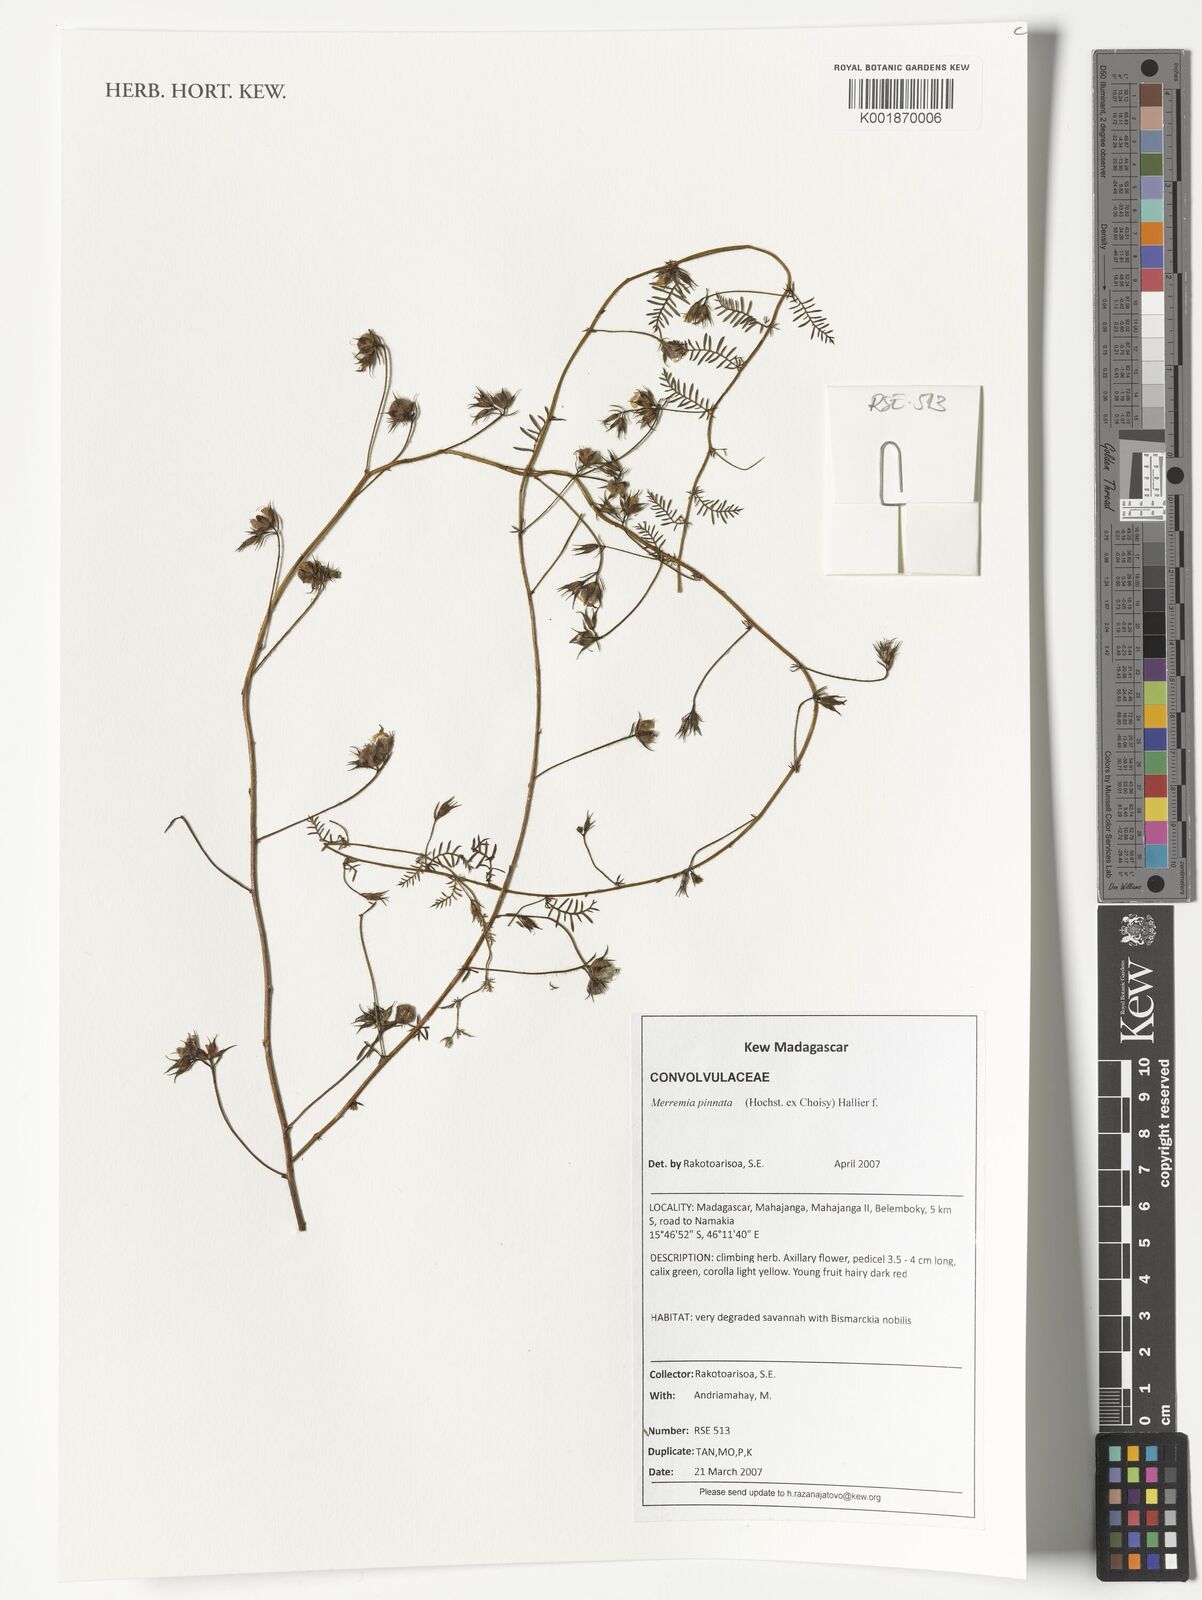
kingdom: Plantae
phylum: Tracheophyta
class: Magnoliopsida
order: Solanales
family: Convolvulaceae
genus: Xenostegia
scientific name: Xenostegia pinnata
